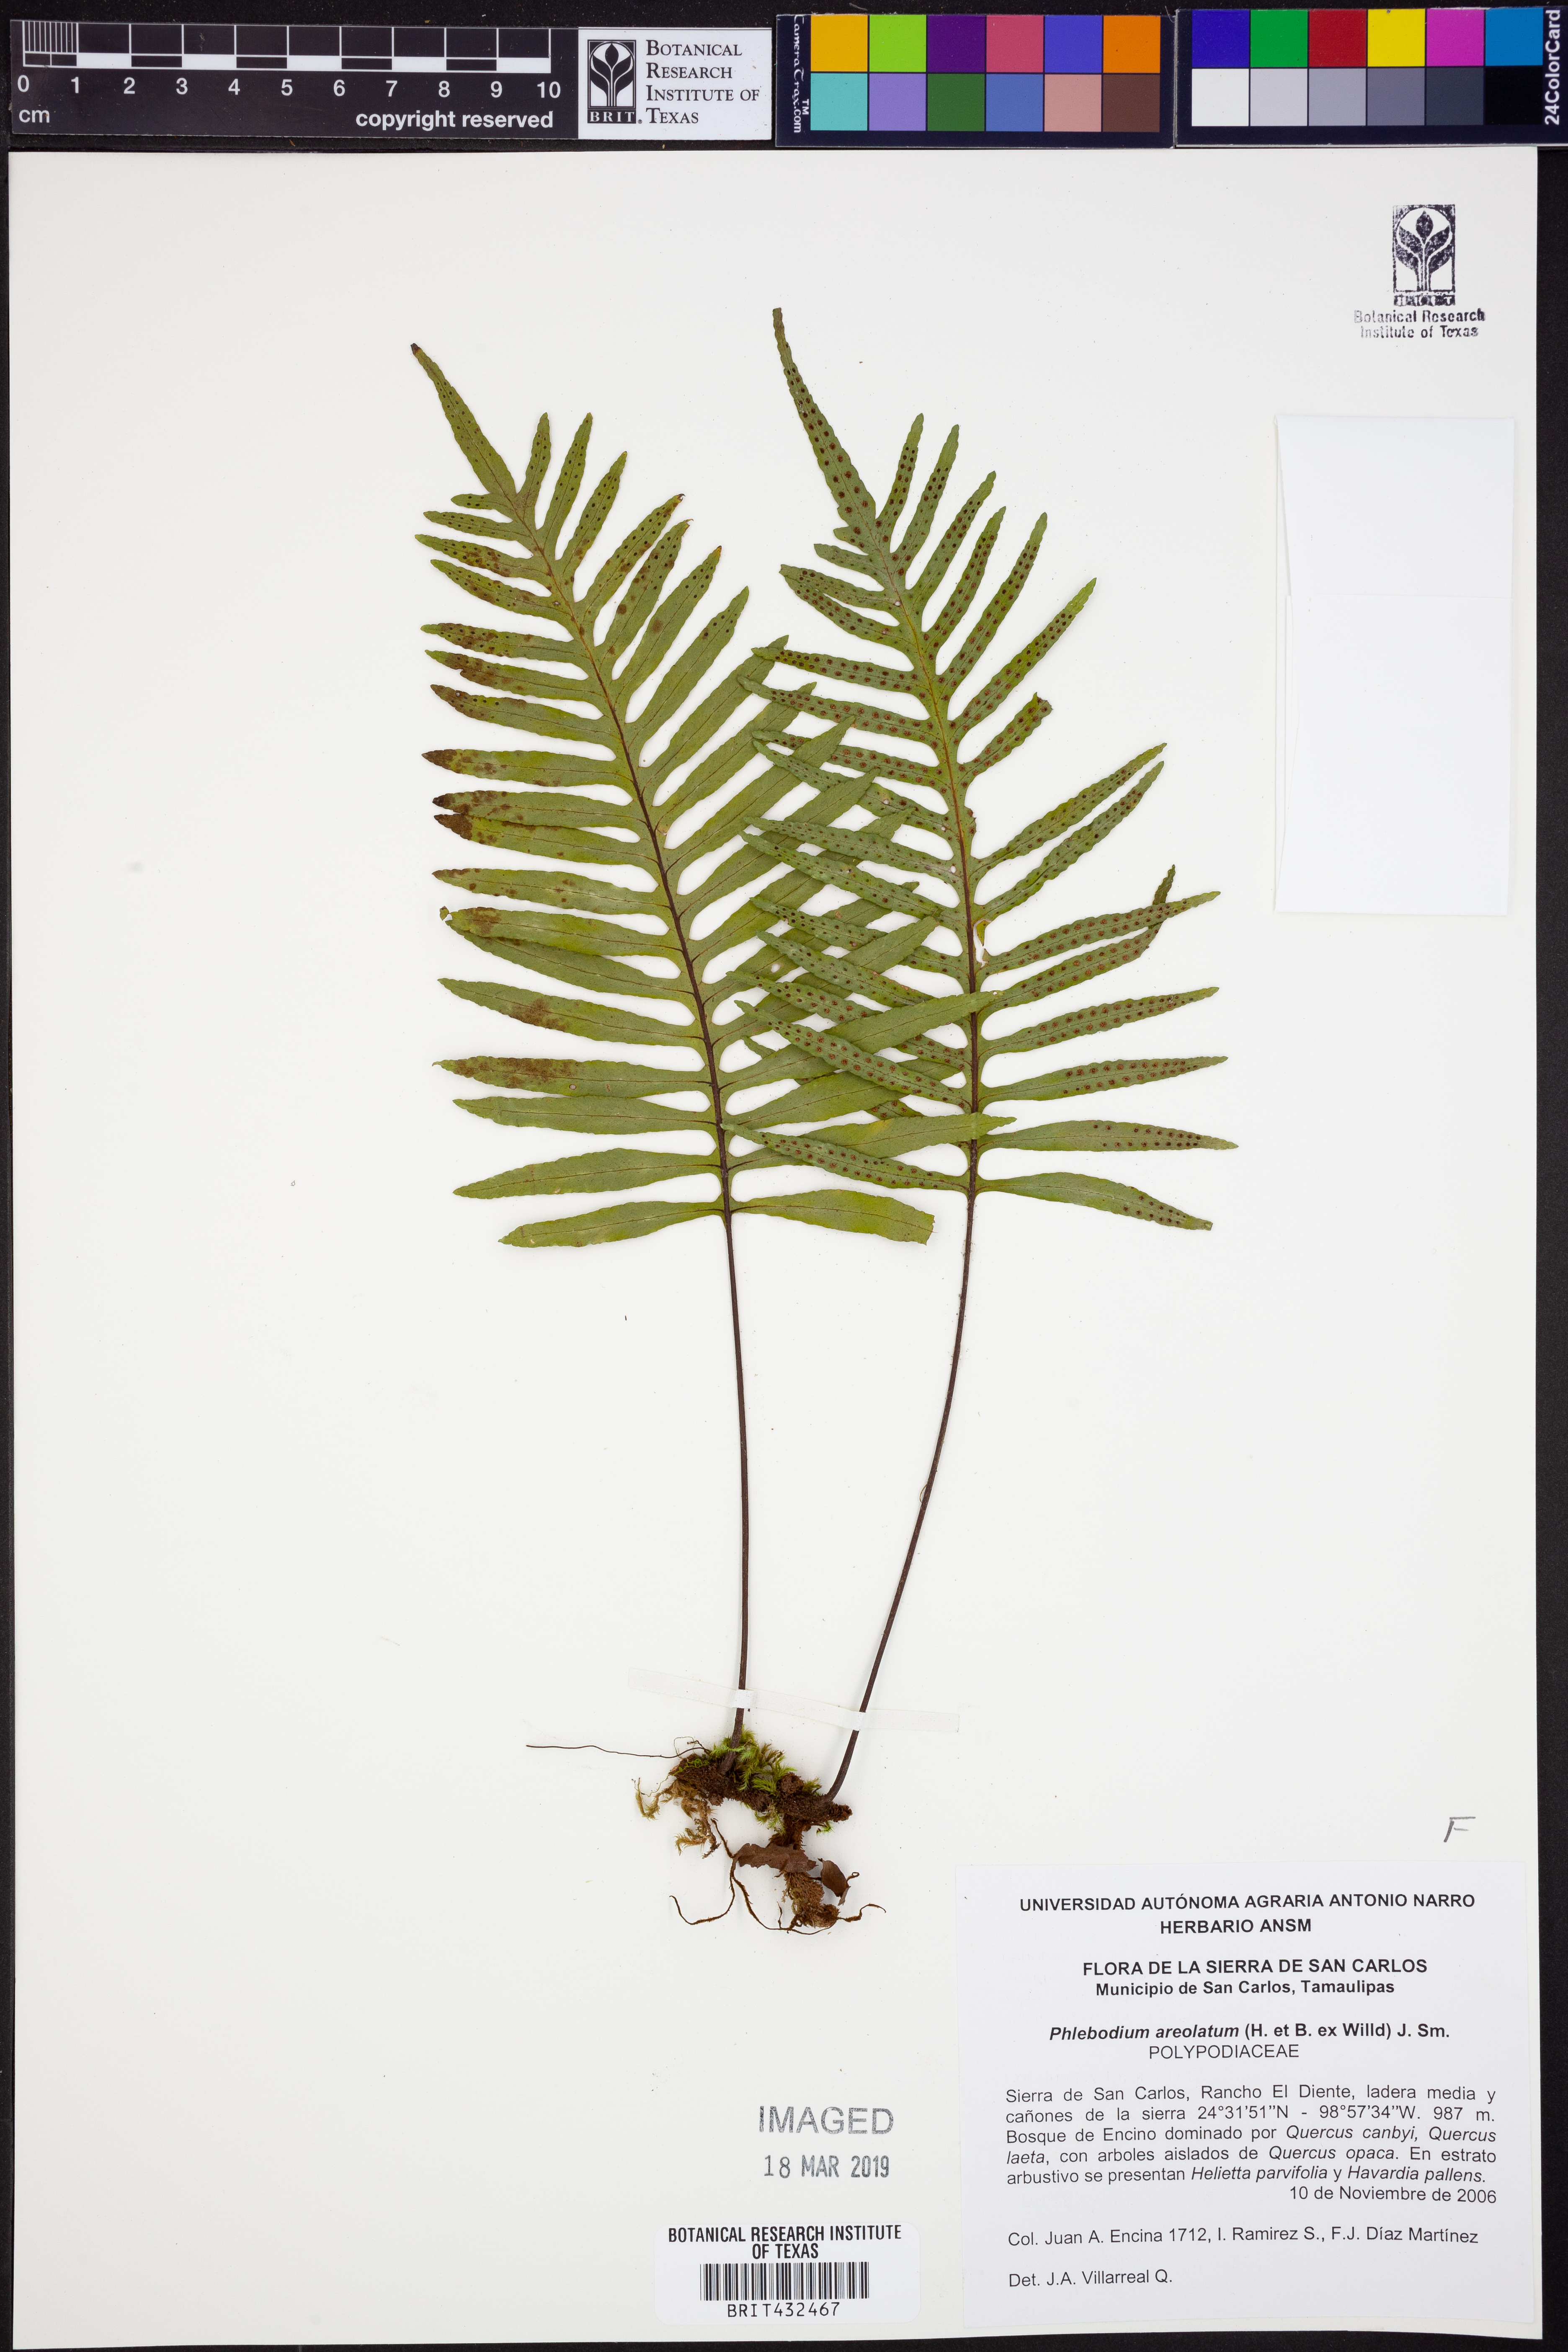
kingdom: Plantae
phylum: Tracheophyta
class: Polypodiopsida
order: Polypodiales
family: Polypodiaceae
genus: Phlebodium
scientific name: Phlebodium pseudoaureum
